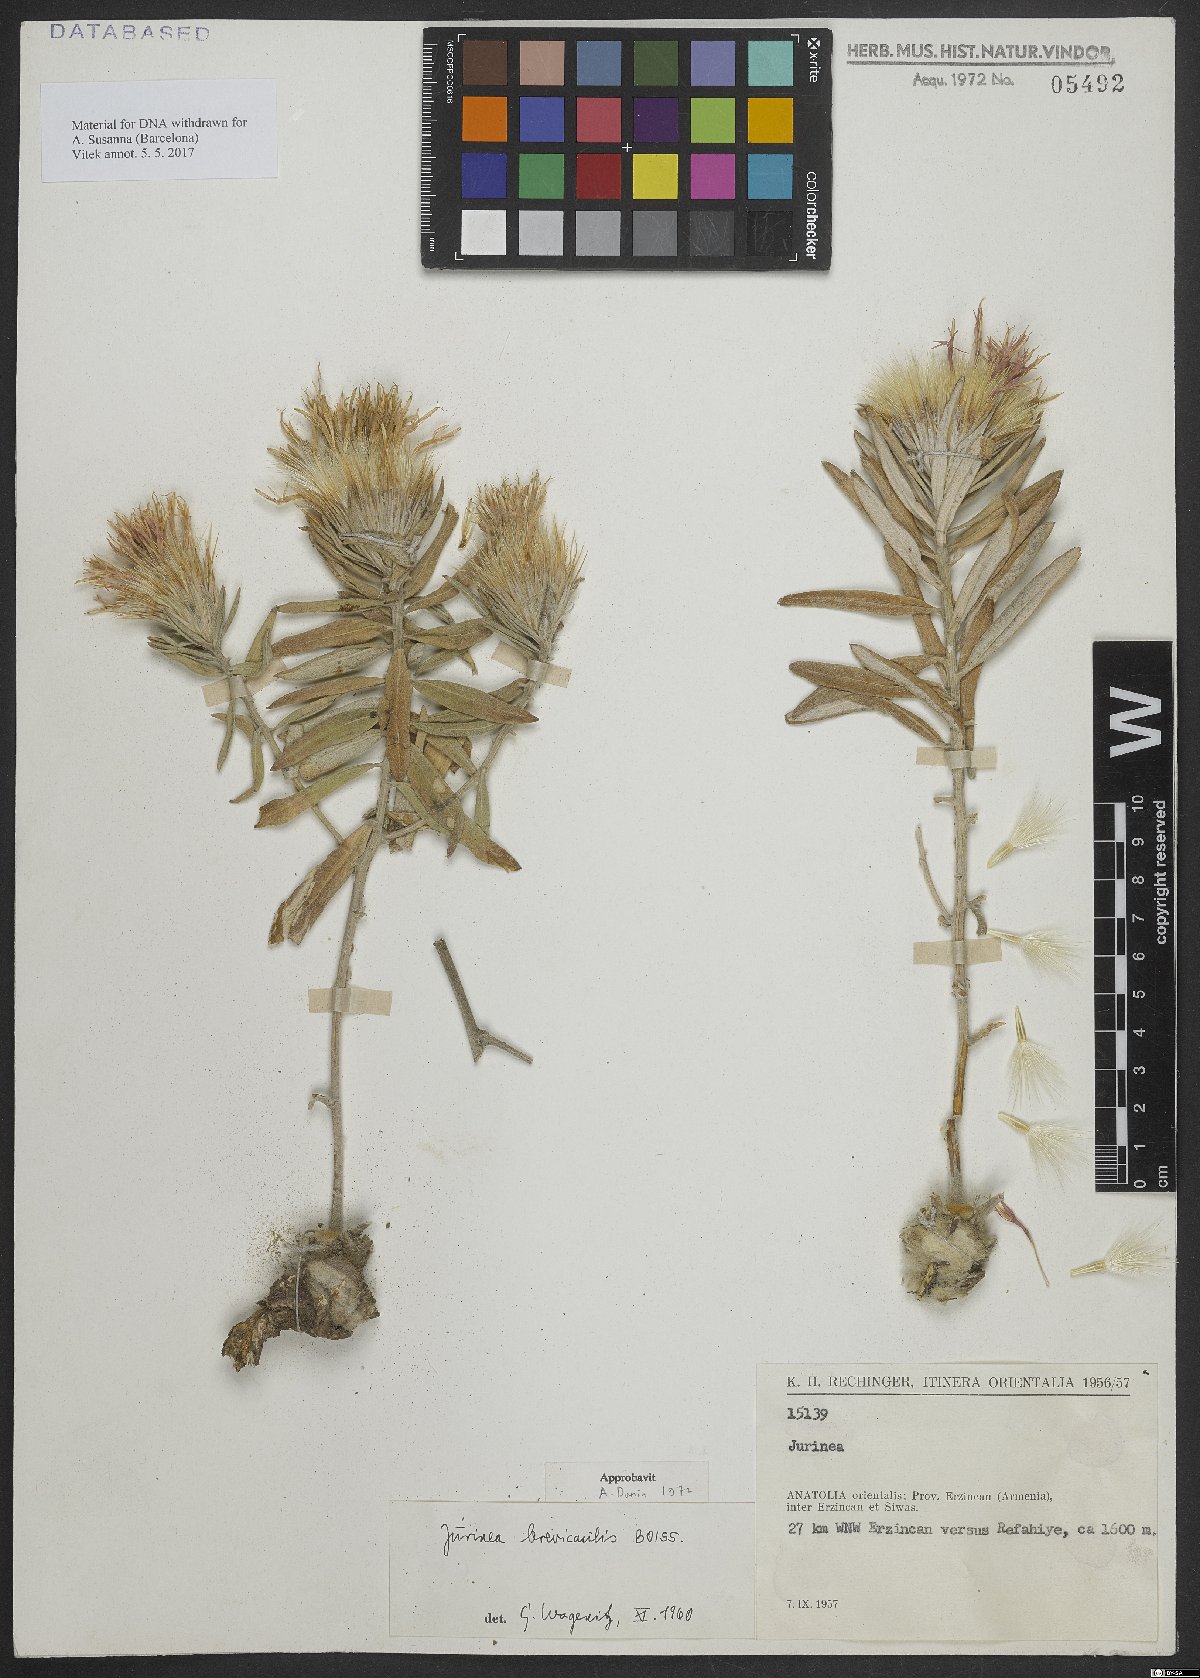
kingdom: Plantae
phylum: Tracheophyta
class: Magnoliopsida
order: Asterales
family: Asteraceae
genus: Jurinea
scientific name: Jurinea brevicaulis
